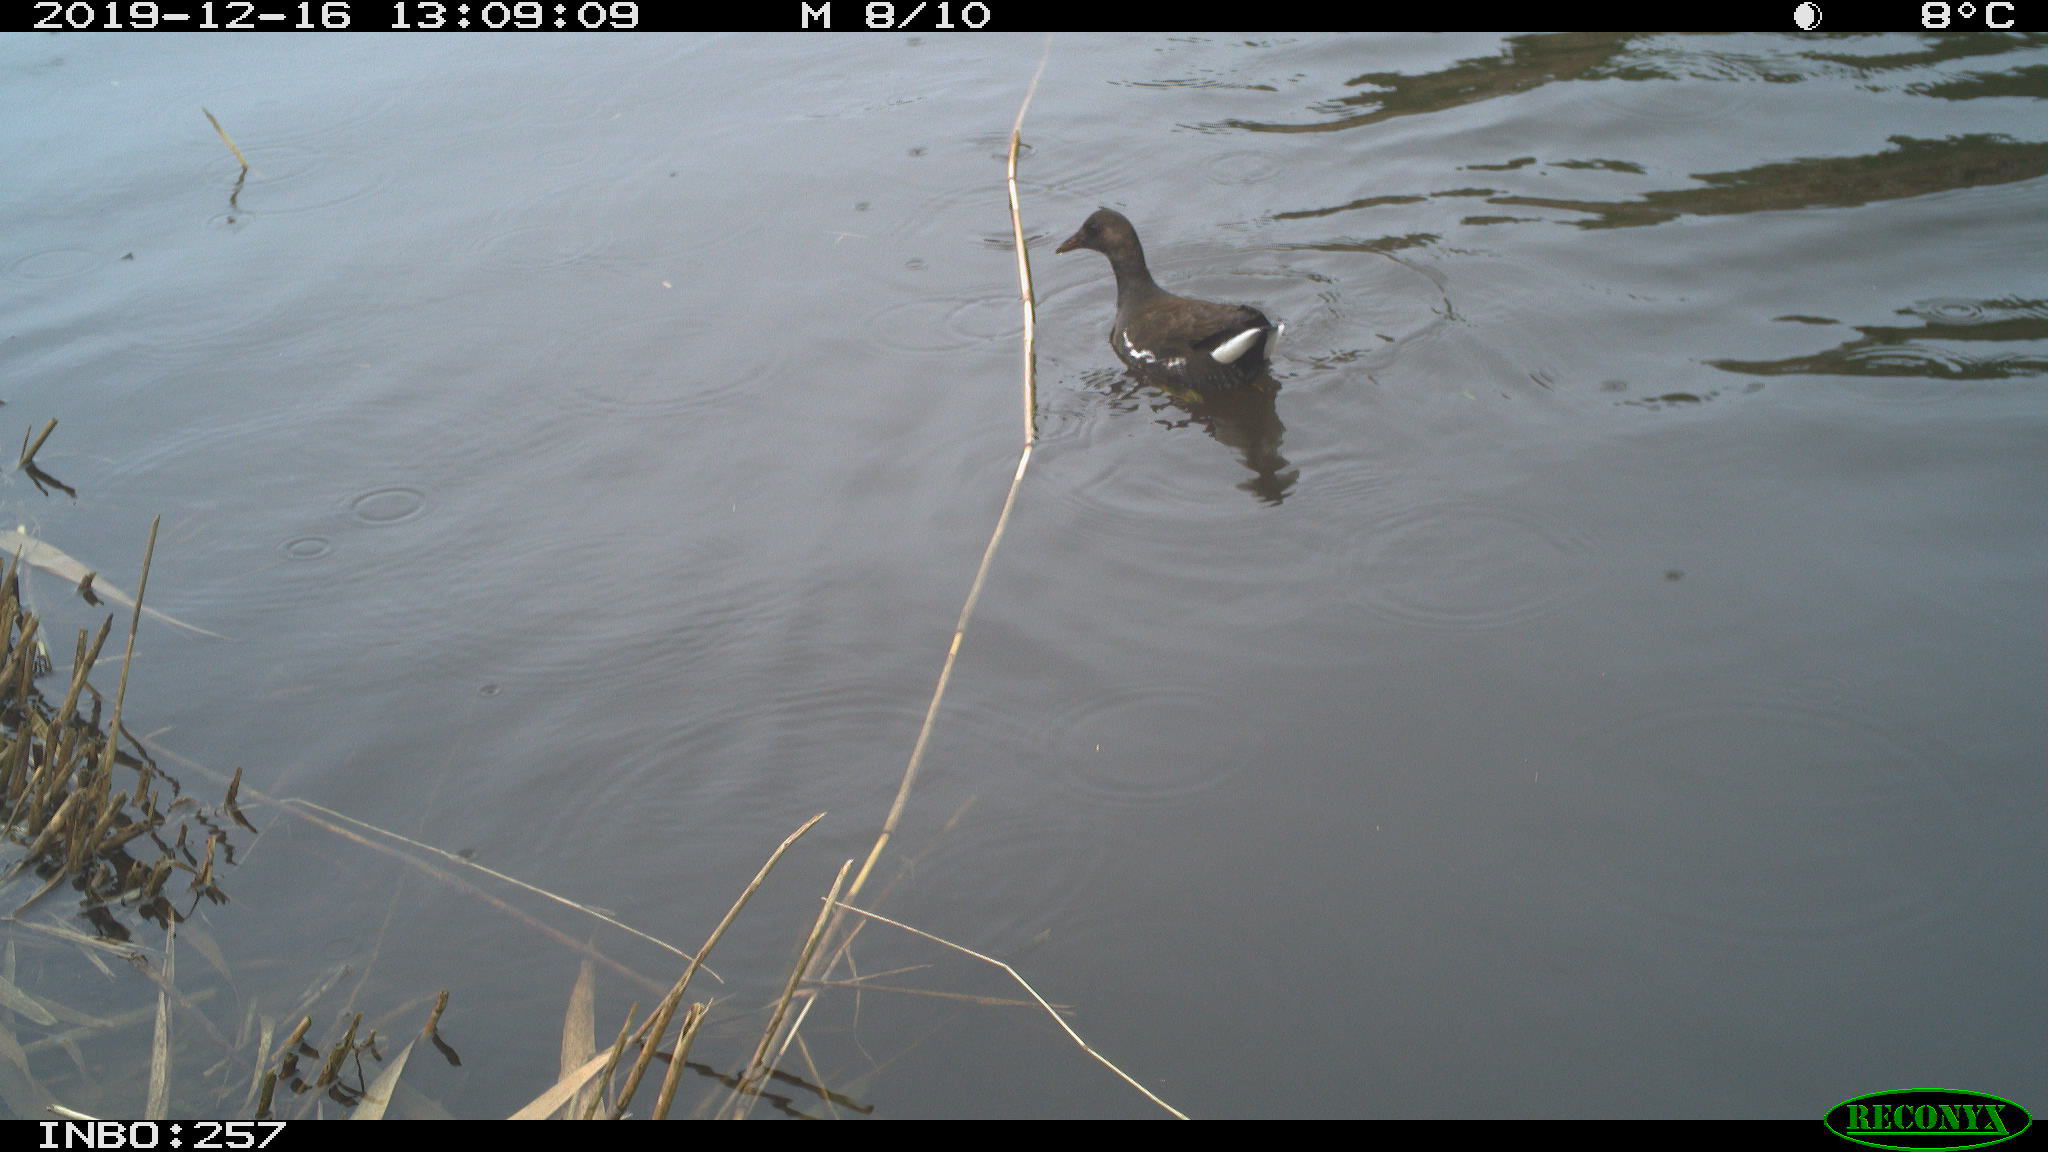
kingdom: Animalia
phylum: Chordata
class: Aves
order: Gruiformes
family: Rallidae
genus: Gallinula
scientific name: Gallinula chloropus
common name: Common moorhen
